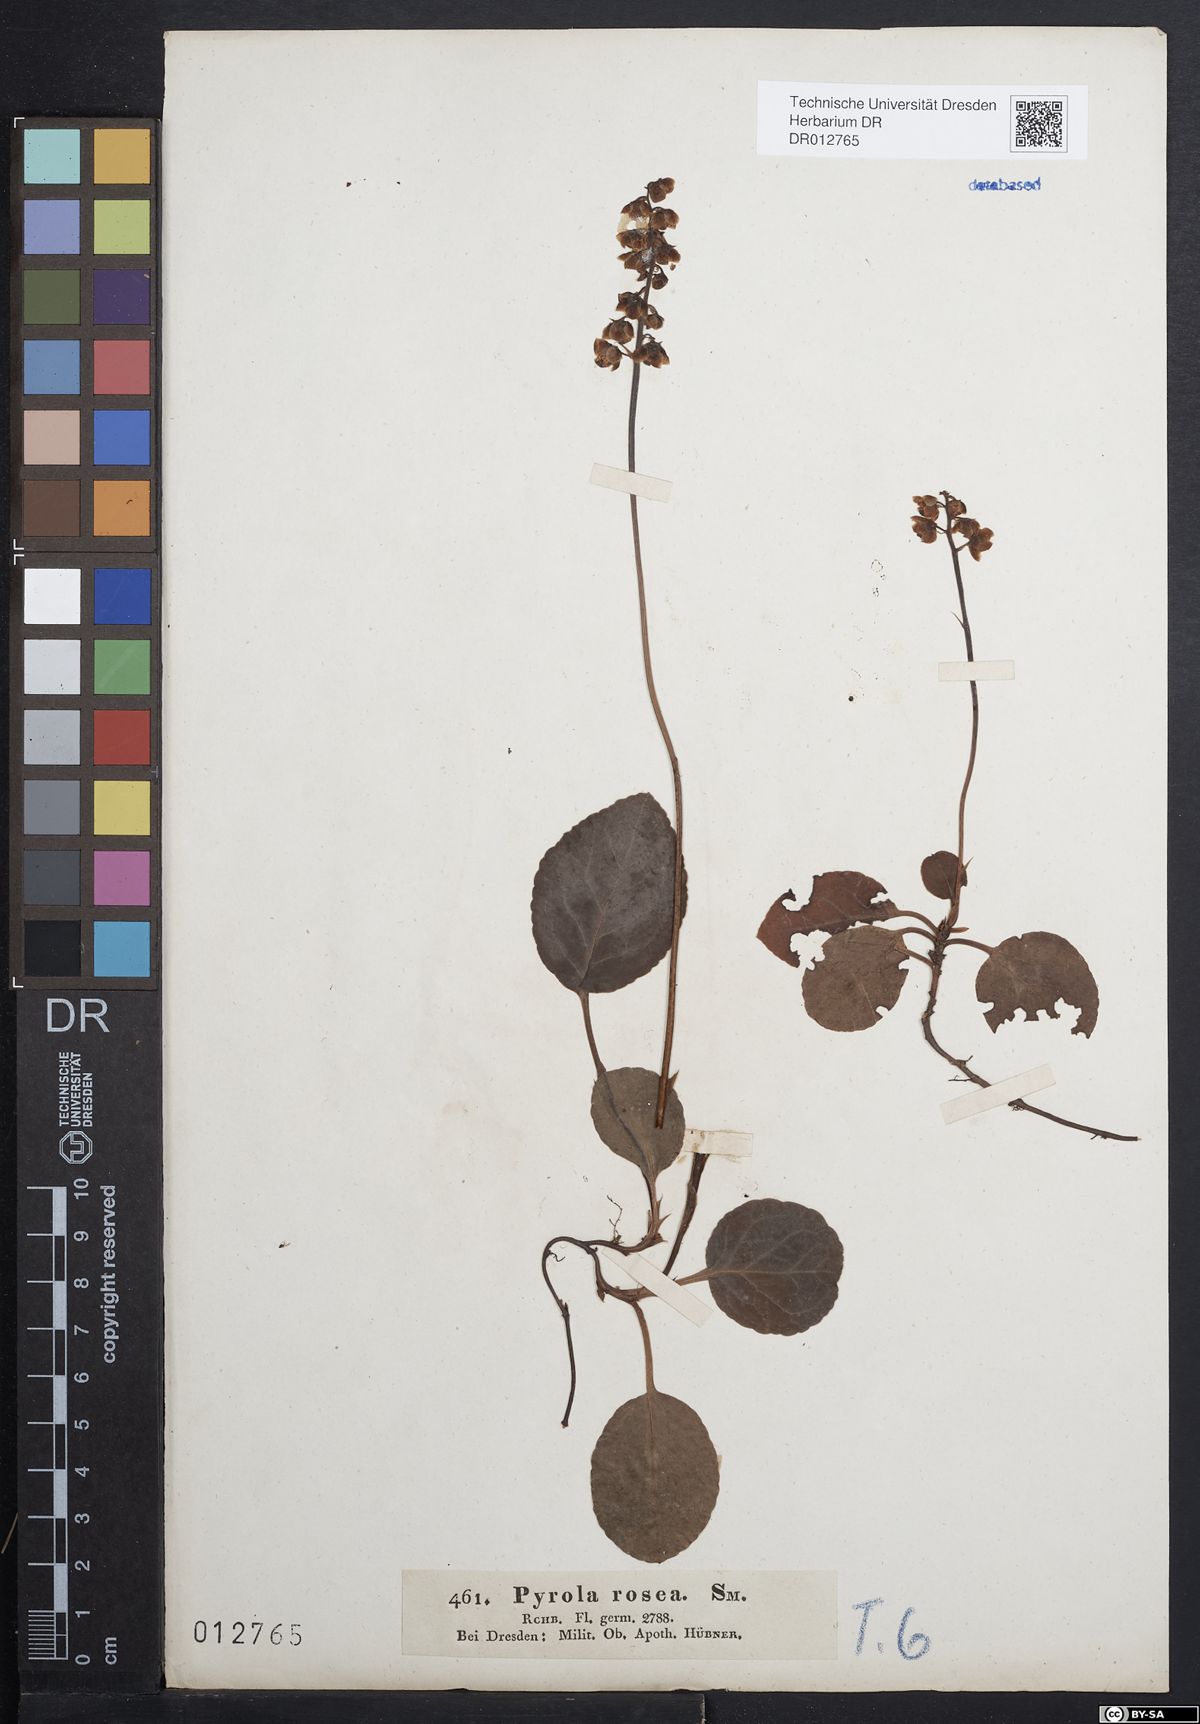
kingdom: Plantae
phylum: Tracheophyta
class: Magnoliopsida
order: Ericales
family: Ericaceae
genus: Pyrola
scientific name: Pyrola minor
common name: Common wintergreen
